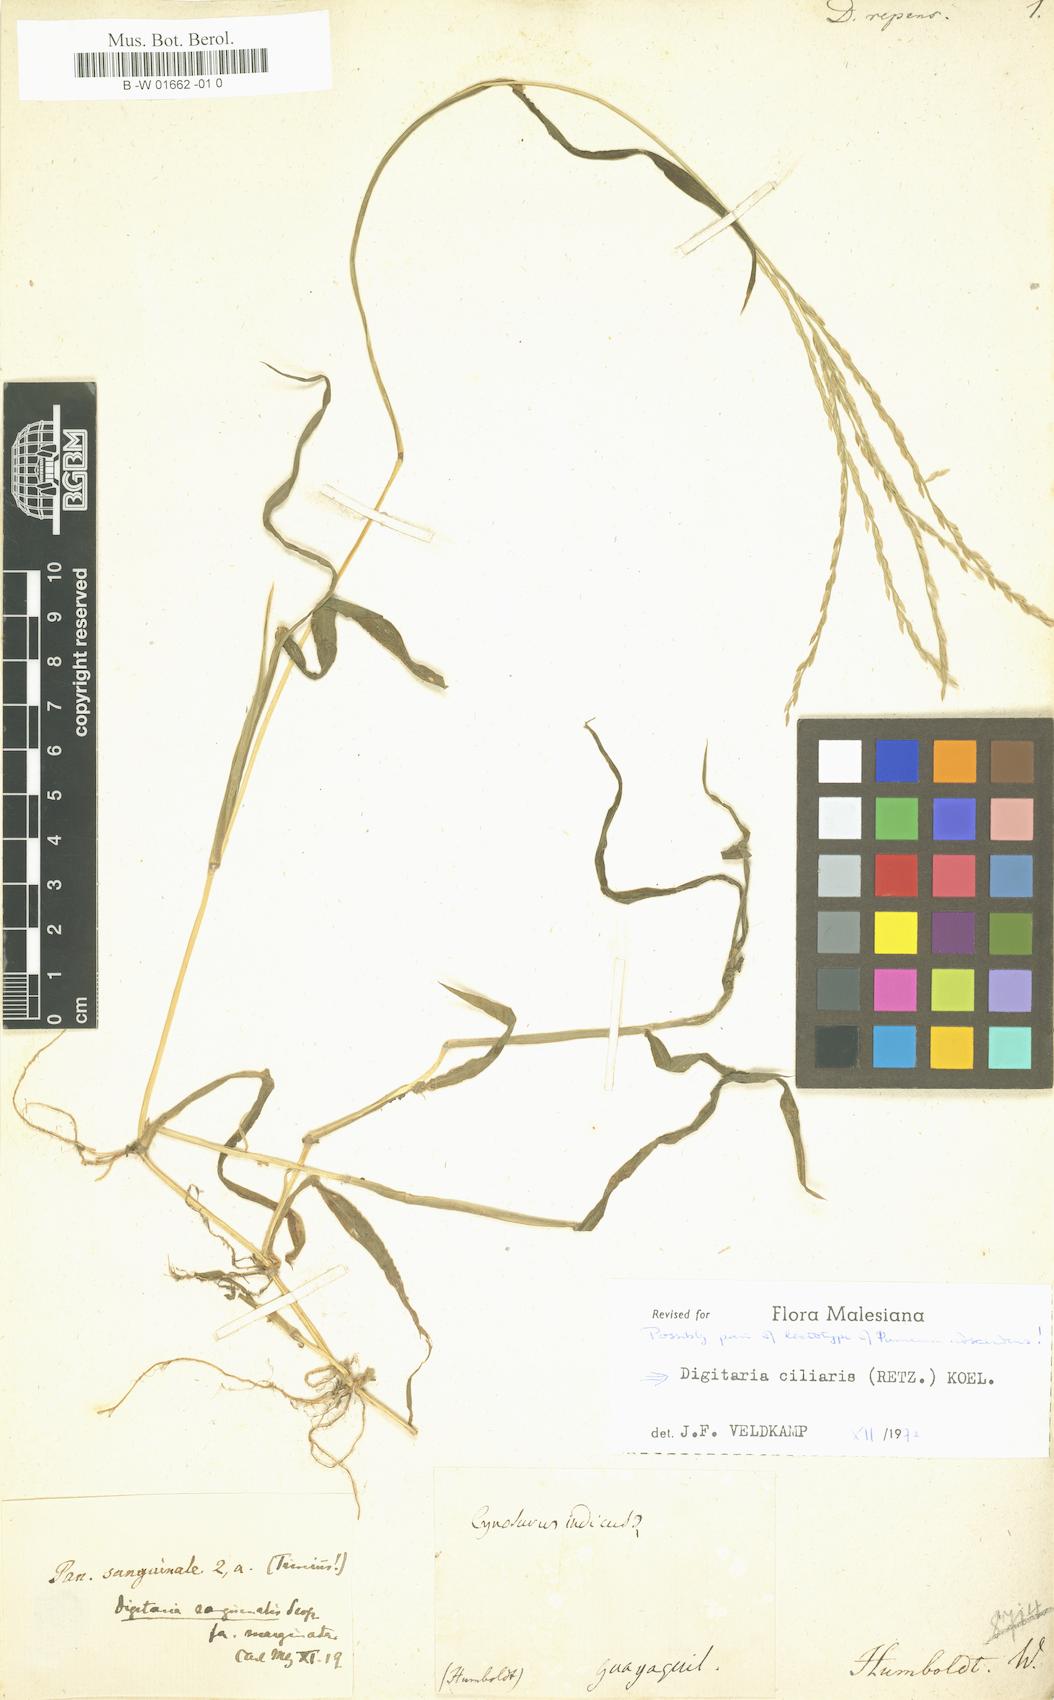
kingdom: Plantae
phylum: Tracheophyta
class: Liliopsida
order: Poales
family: Poaceae
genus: Digitaria
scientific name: Digitaria villosa
